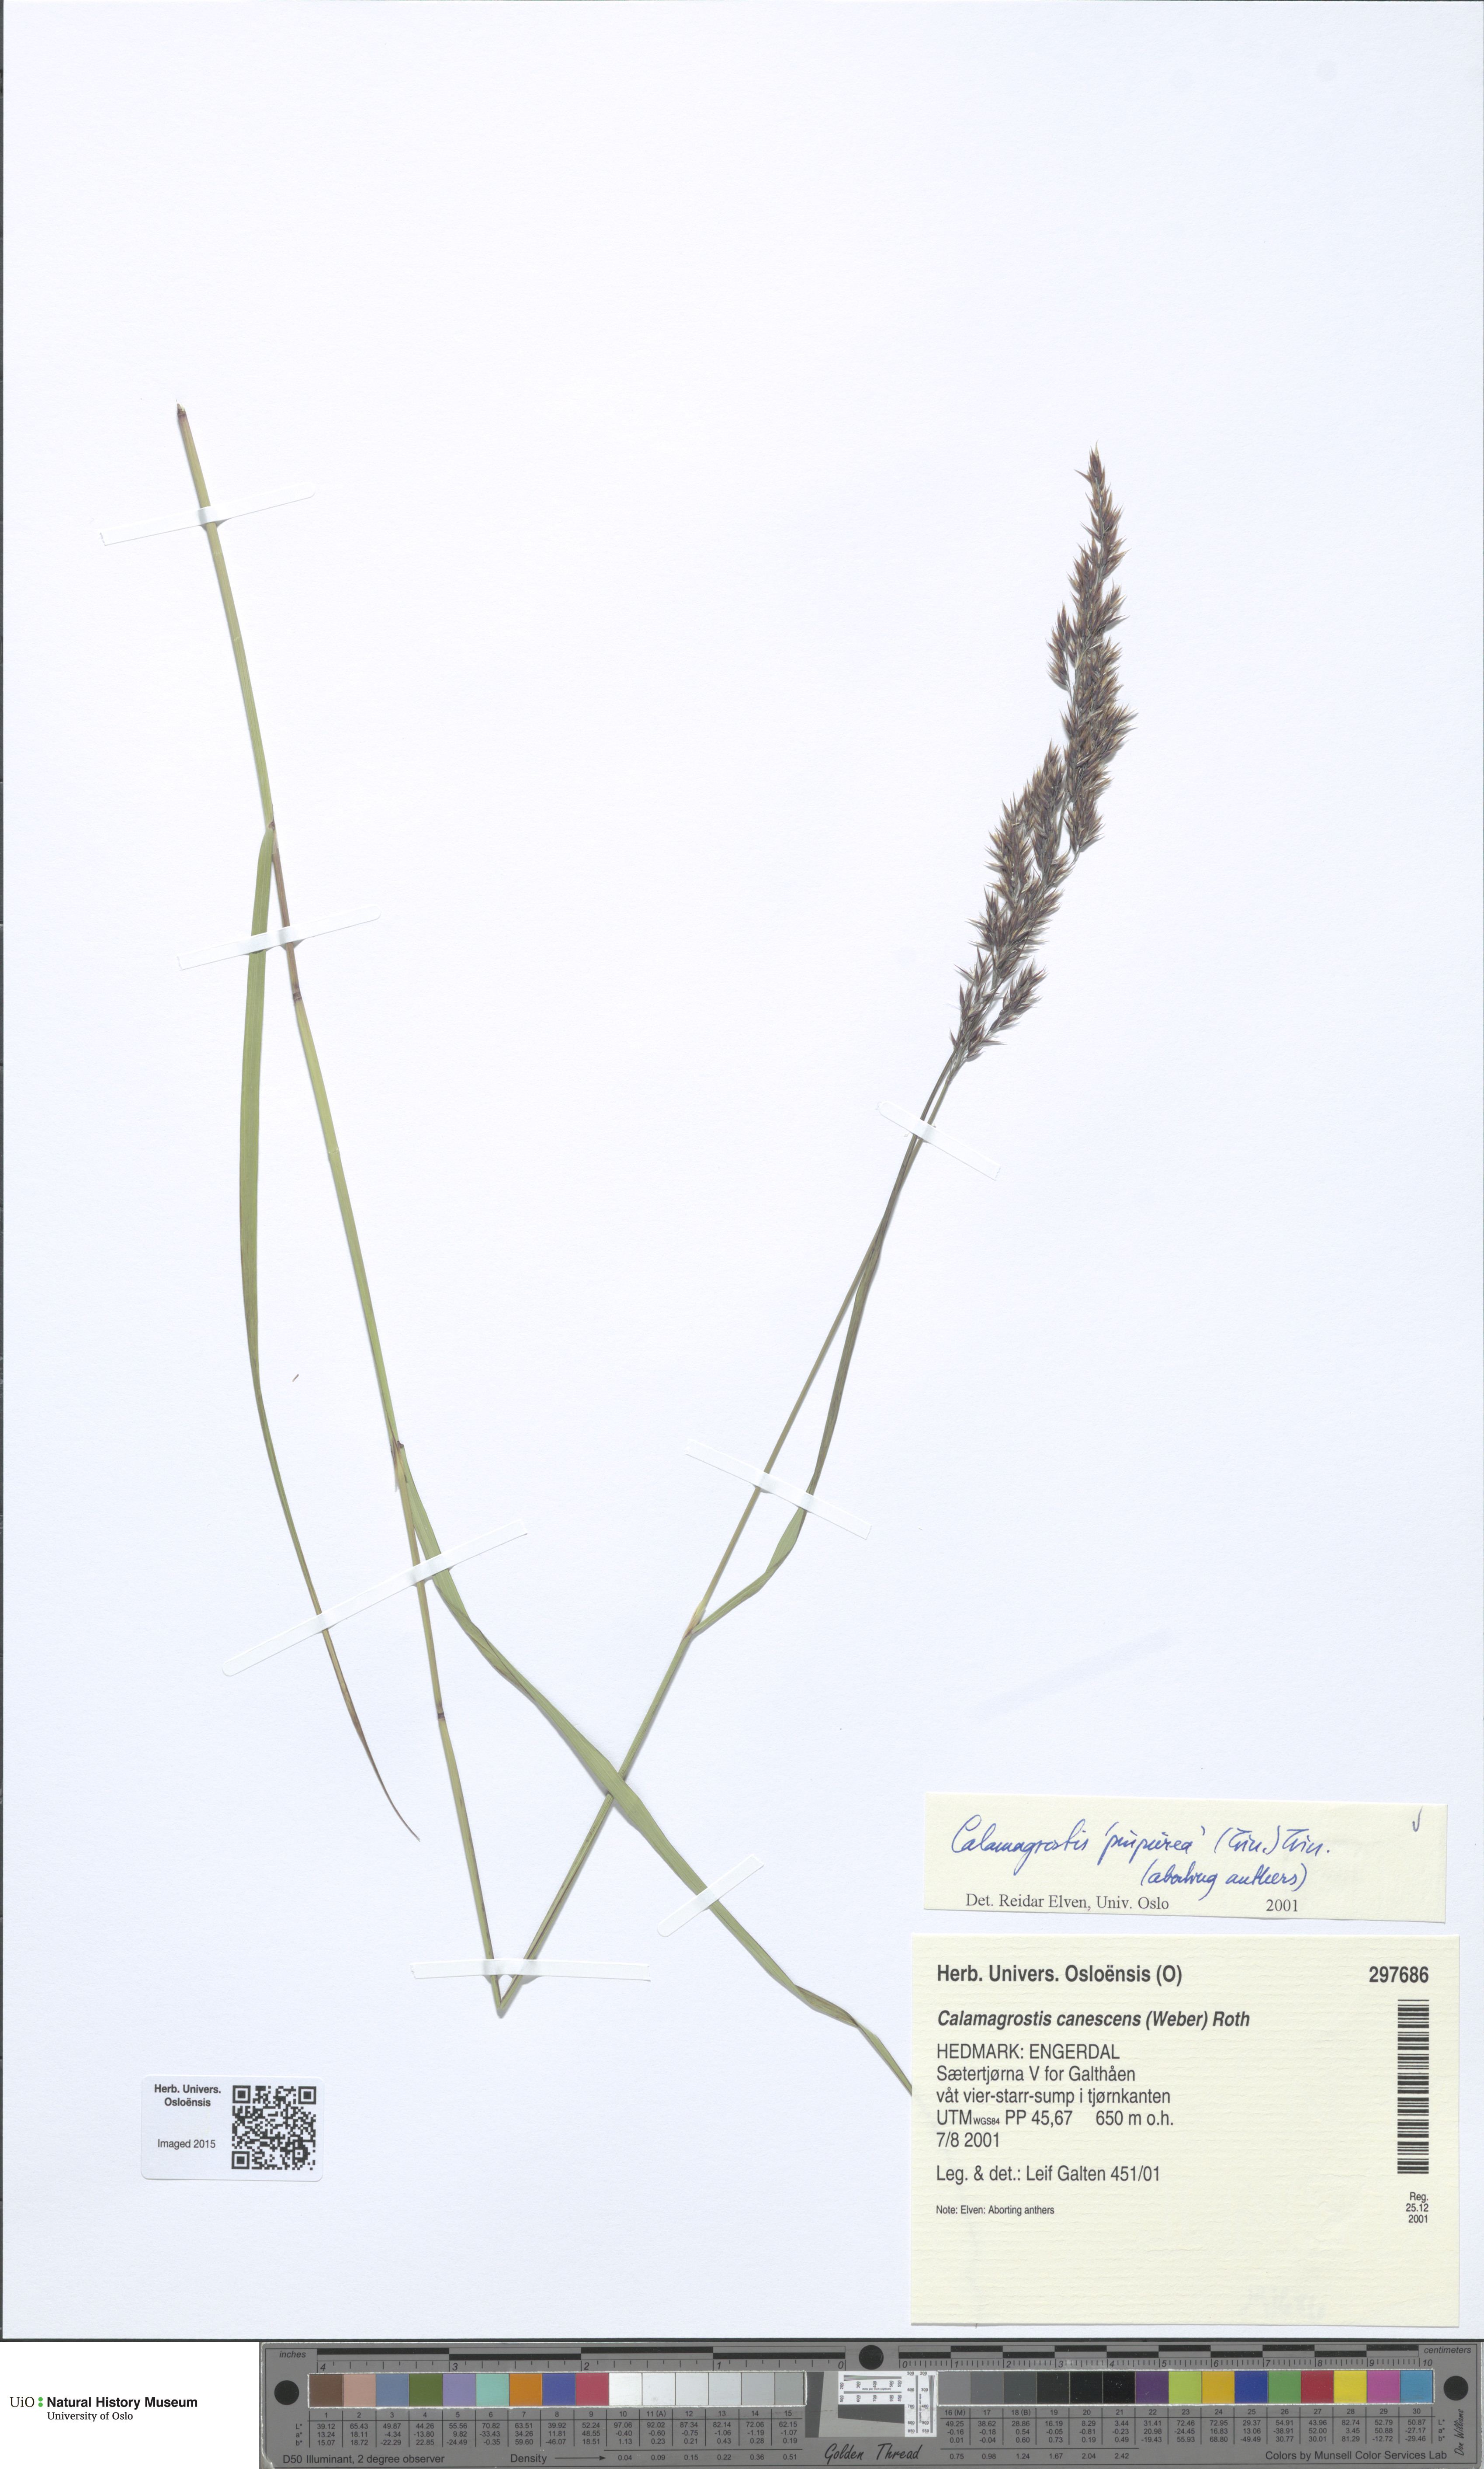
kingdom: Plantae
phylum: Tracheophyta
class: Liliopsida
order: Poales
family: Poaceae
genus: Calamagrostis
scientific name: Calamagrostis purpurea
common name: Scandinavian small-reed
